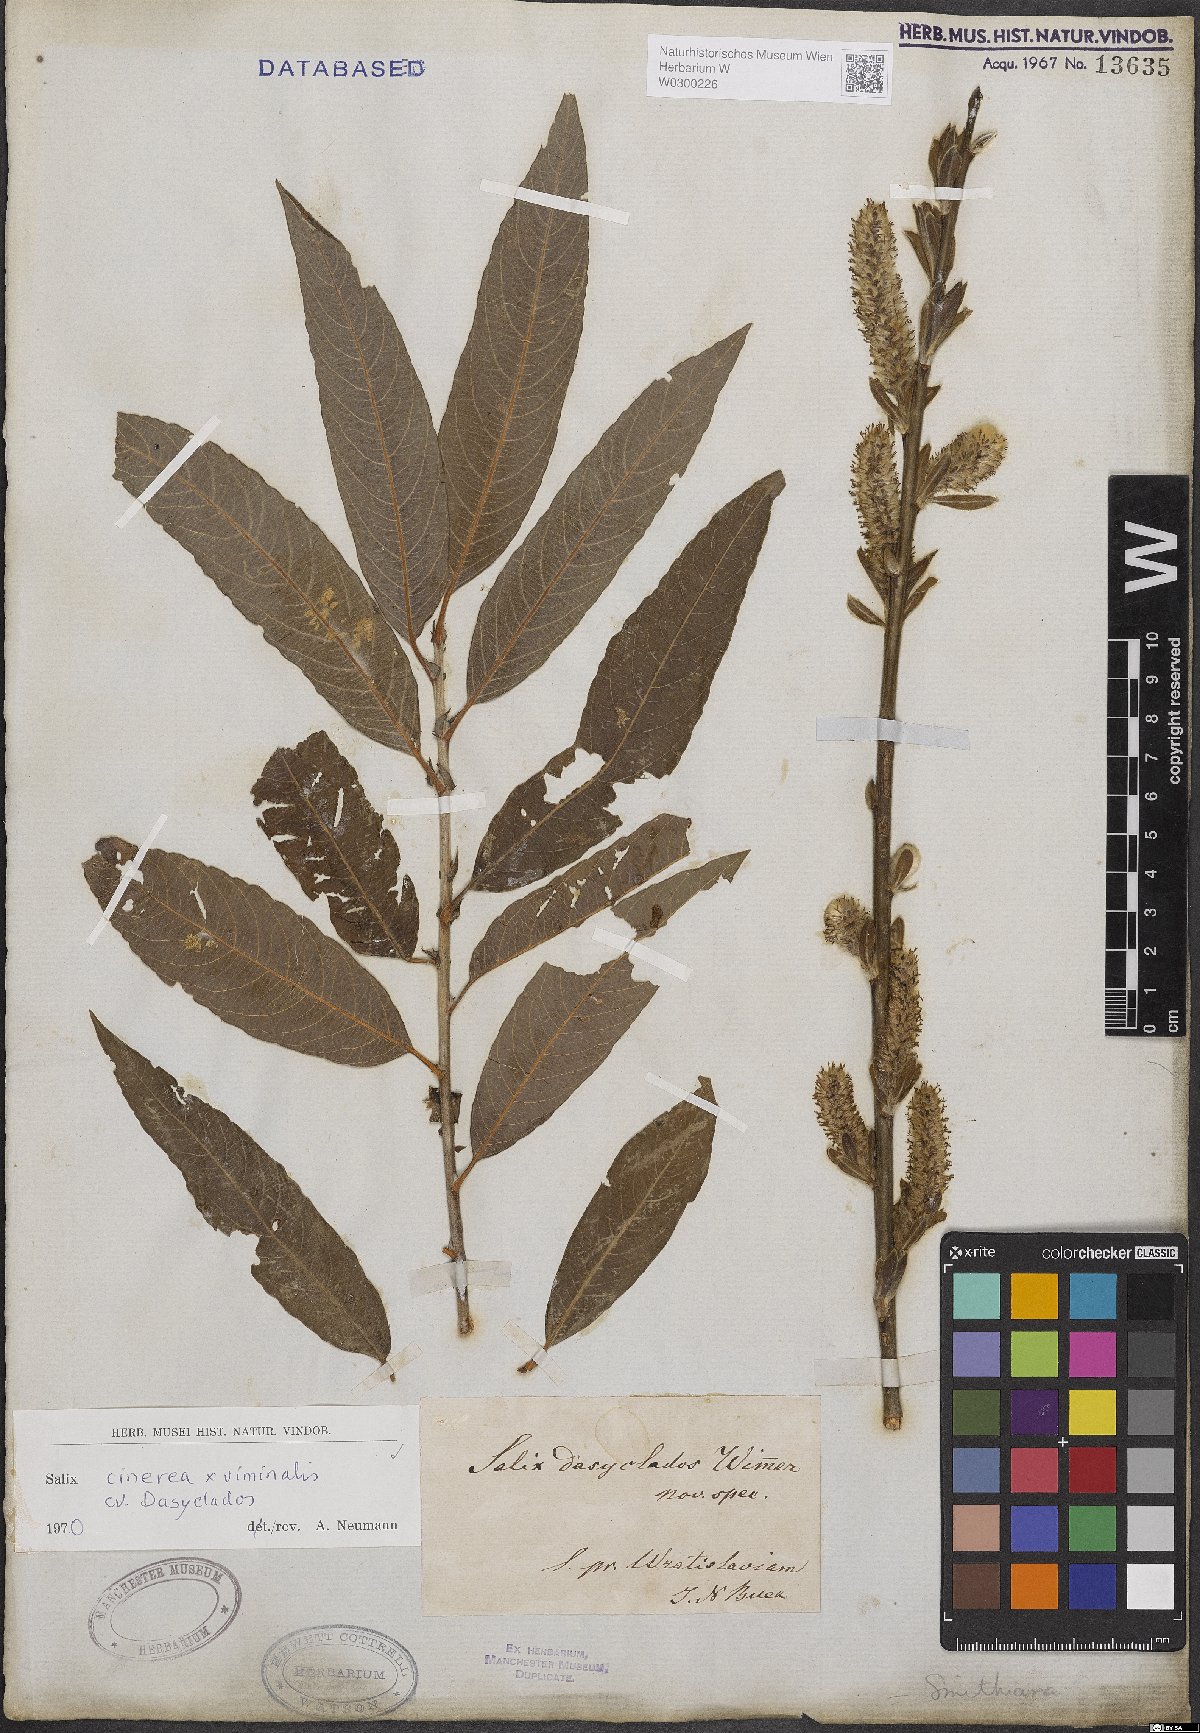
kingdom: Plantae
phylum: Tracheophyta
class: Magnoliopsida
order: Malpighiales
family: Salicaceae
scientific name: Salicaceae
